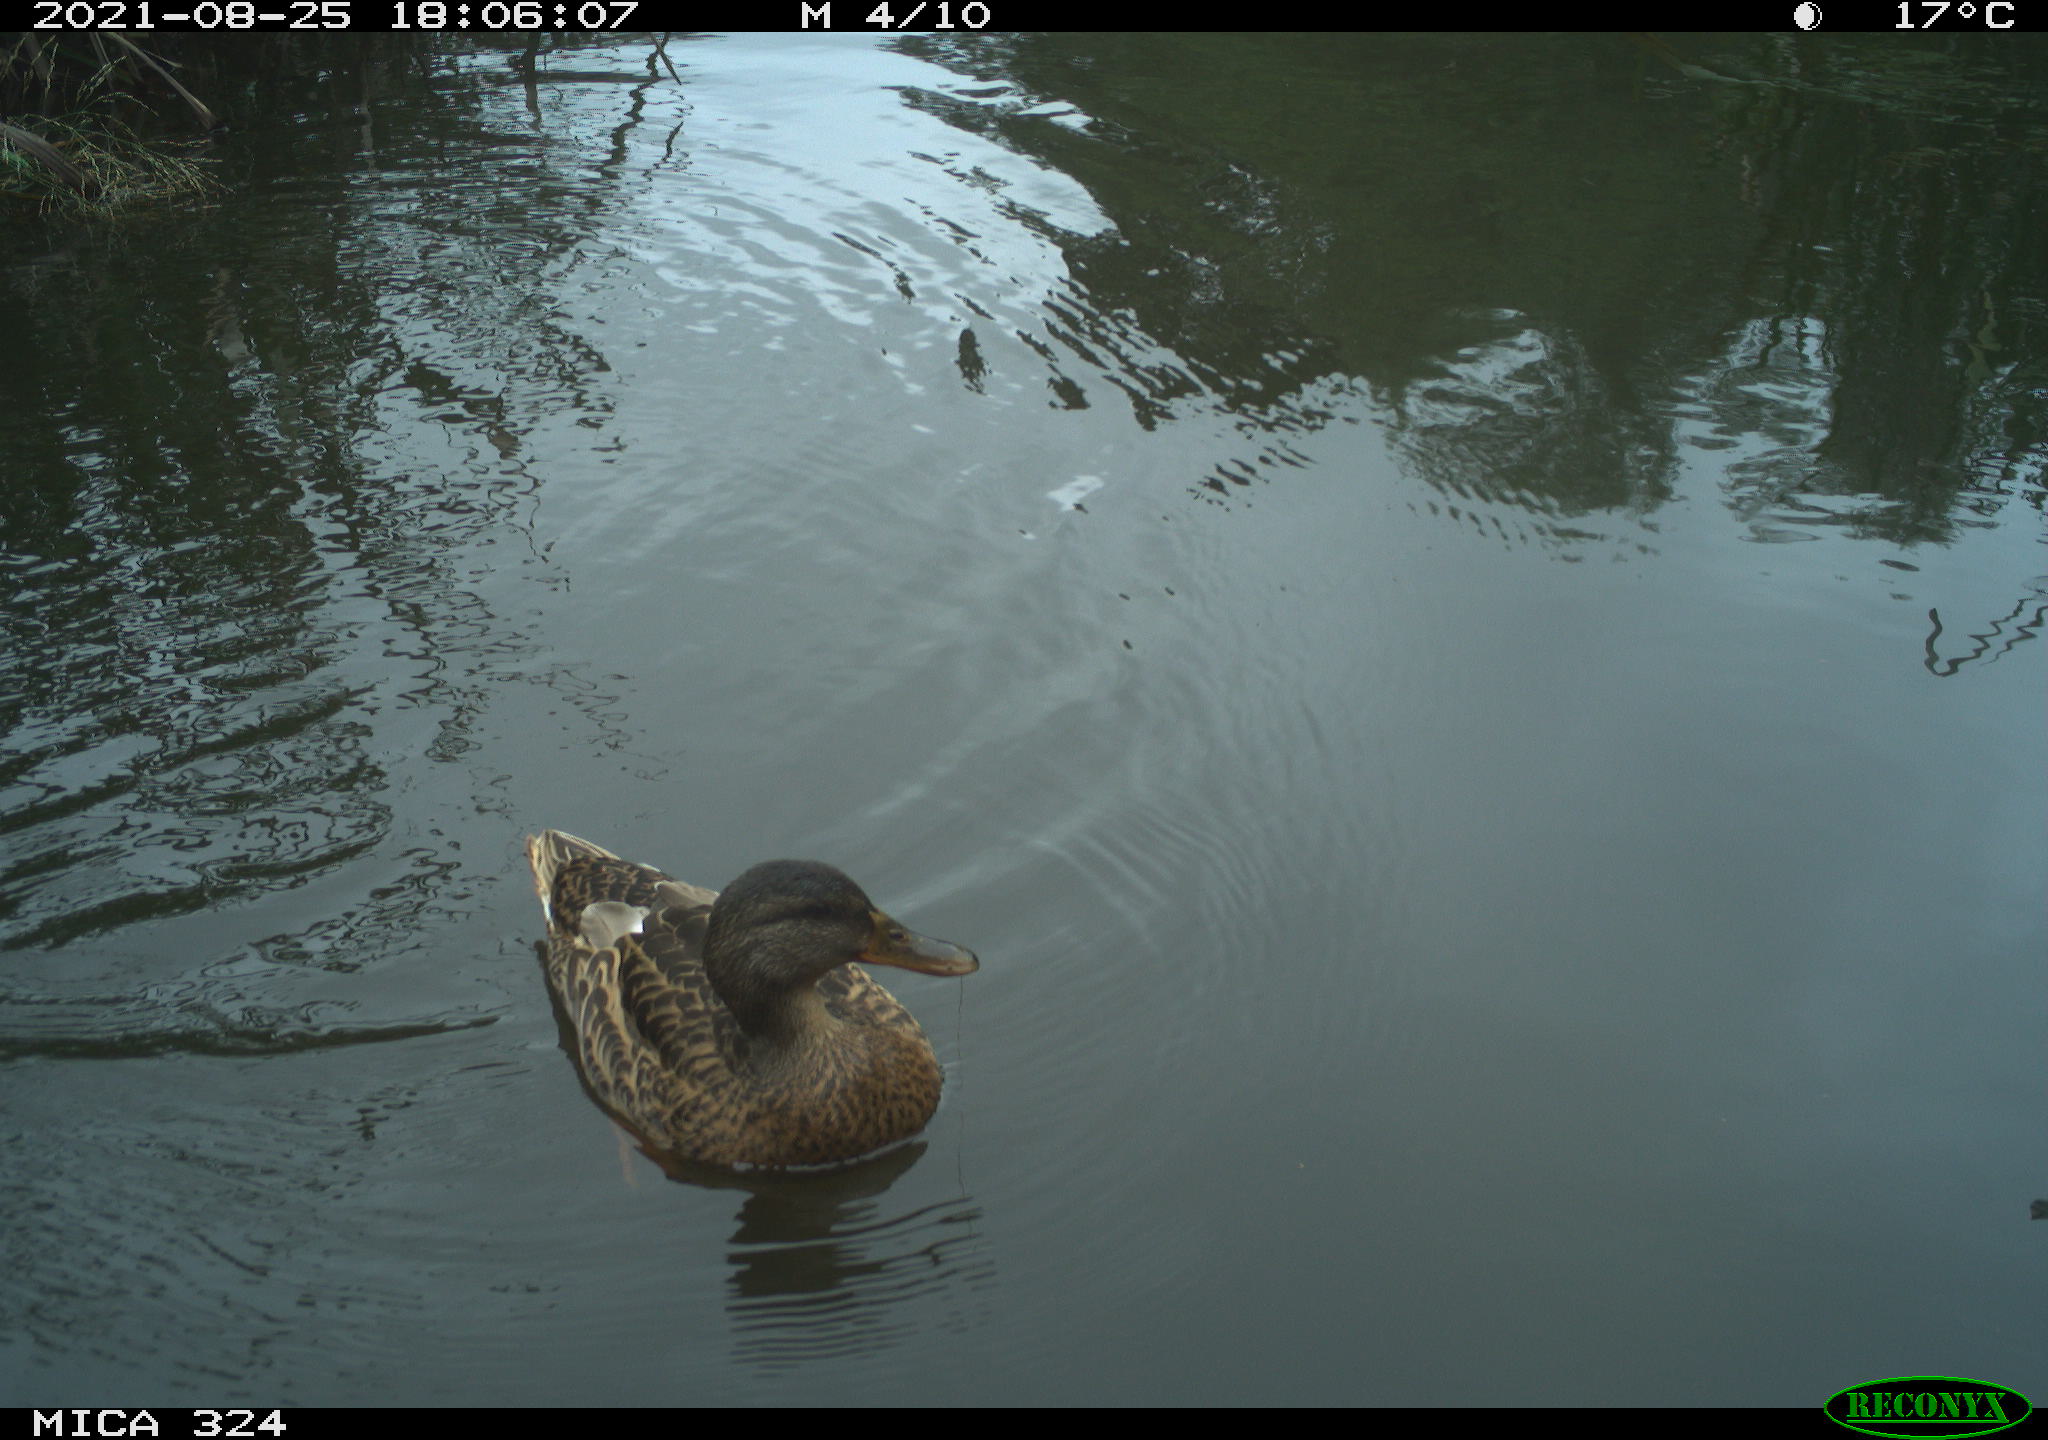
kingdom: Animalia
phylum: Chordata
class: Aves
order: Anseriformes
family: Anatidae
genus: Anas
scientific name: Anas platyrhynchos
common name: Mallard
